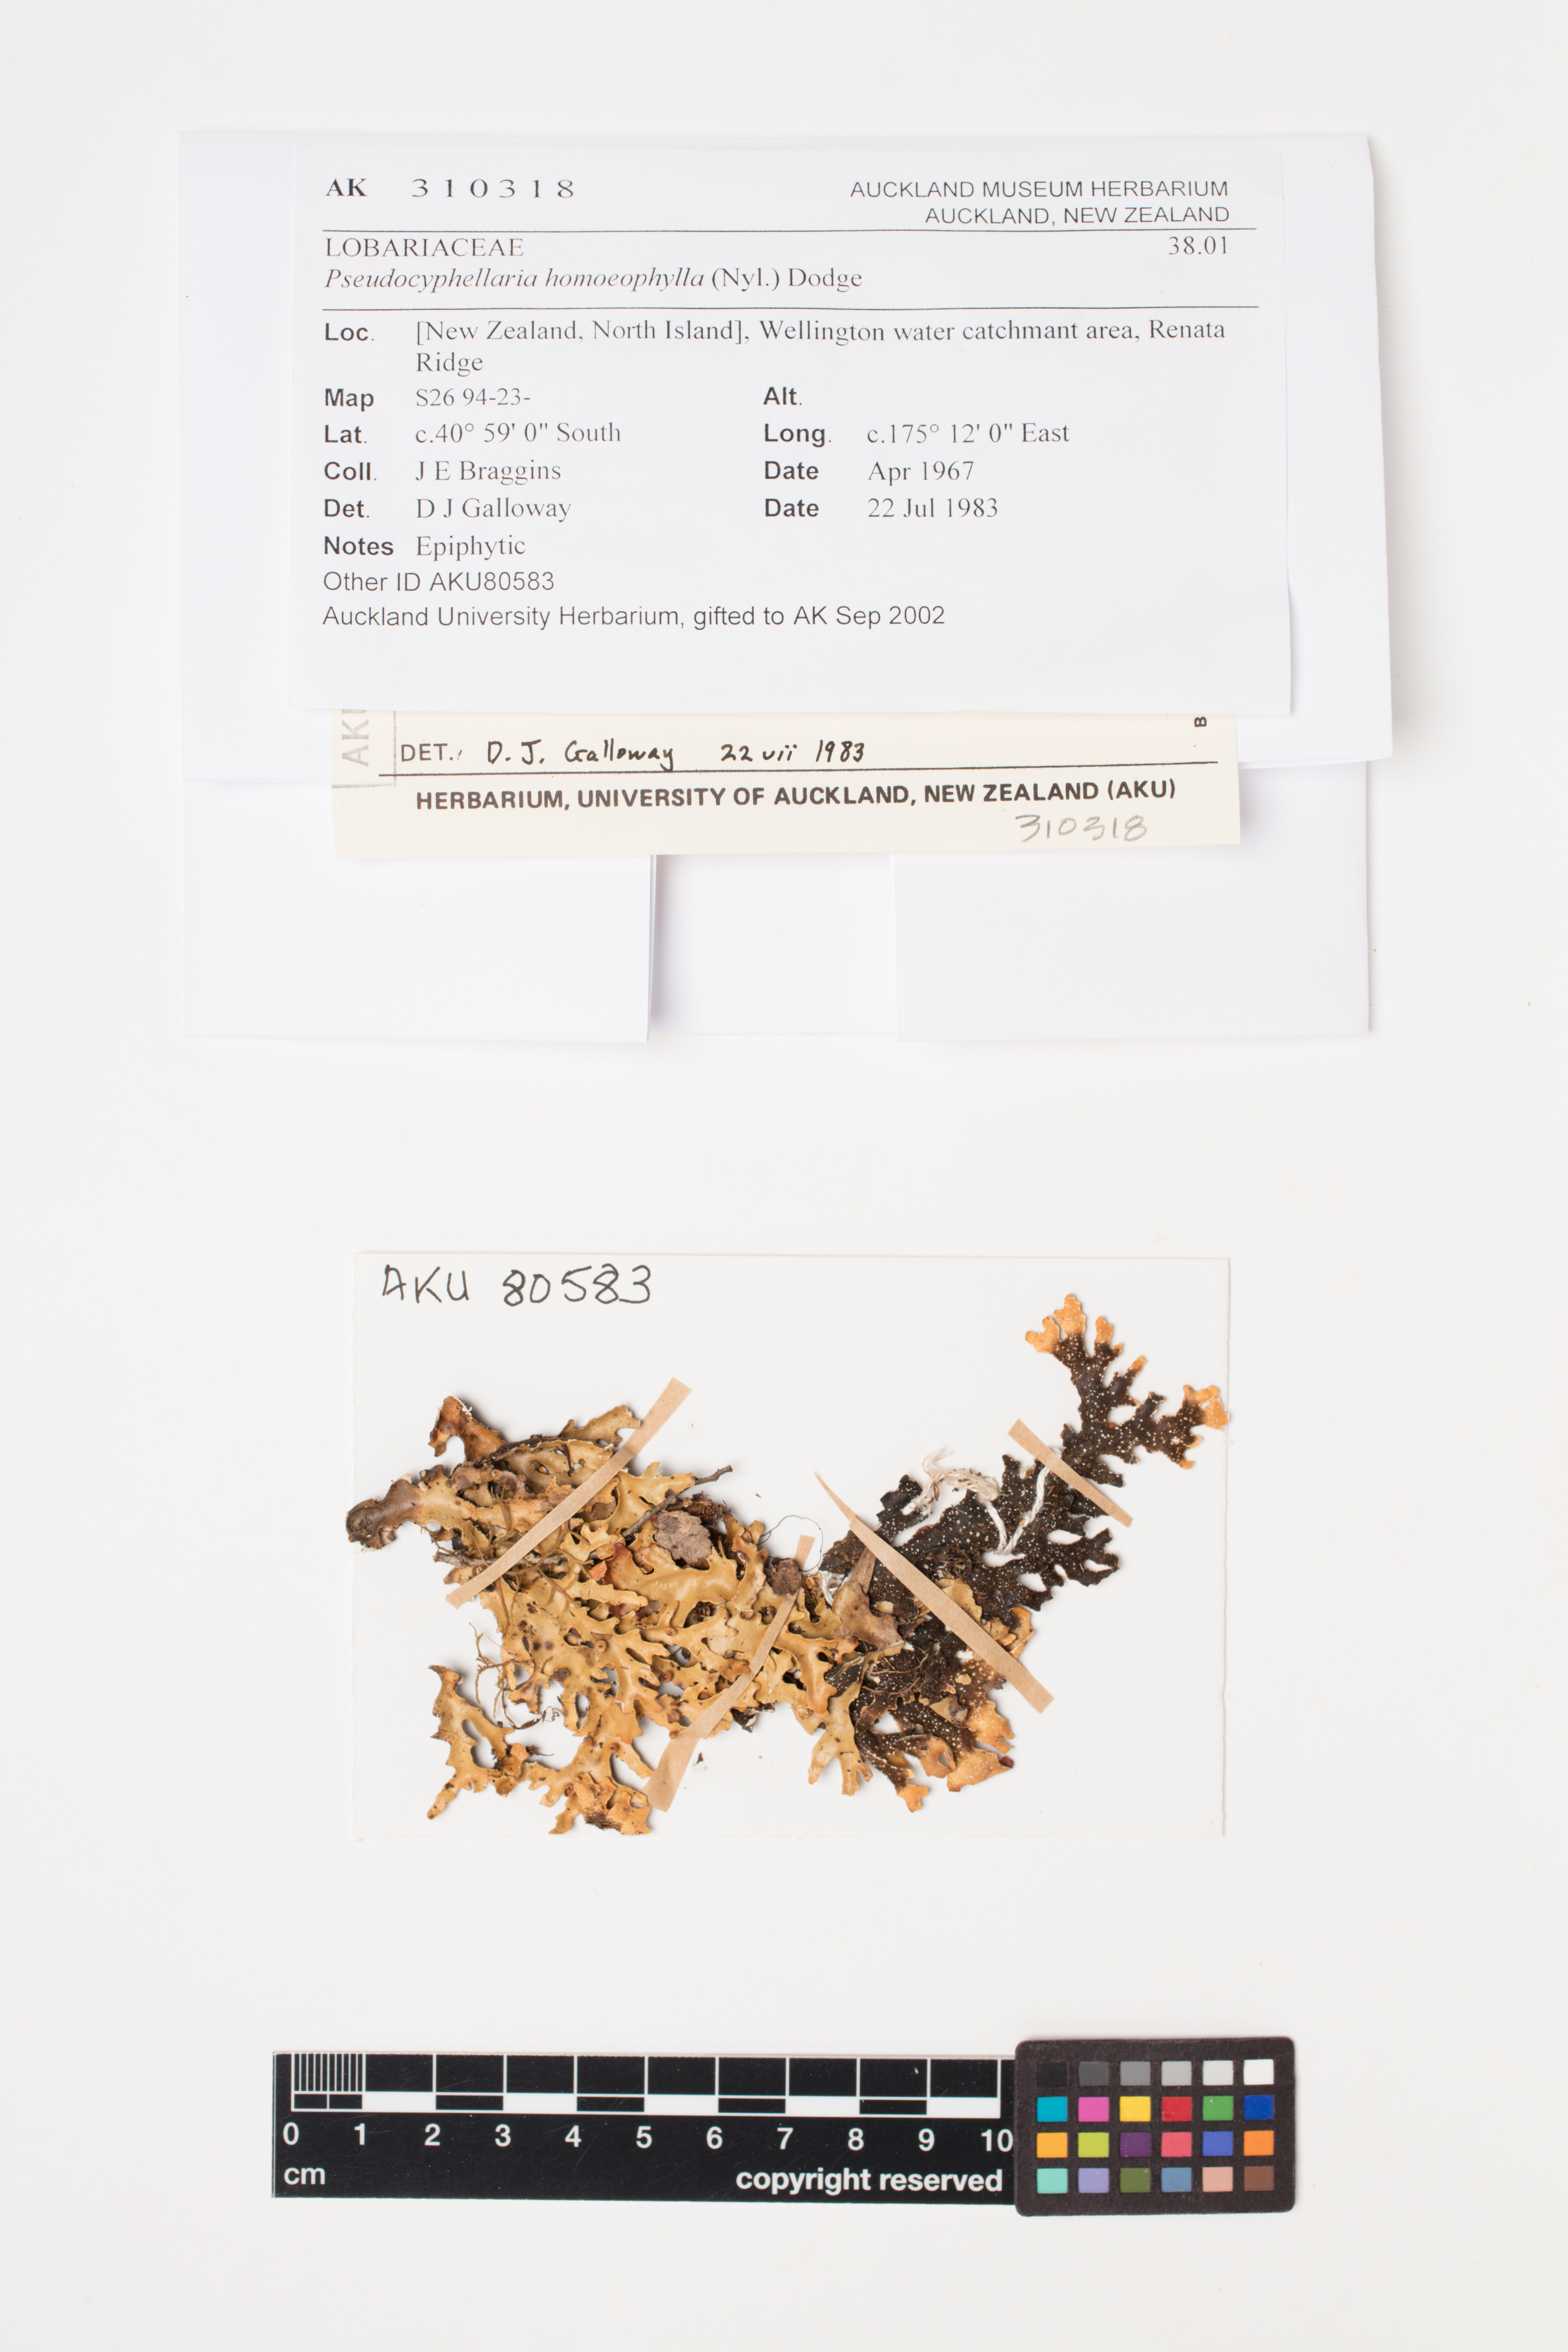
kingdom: Fungi
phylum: Ascomycota
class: Lecanoromycetes
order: Peltigerales
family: Lobariaceae
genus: Pseudocyphellaria
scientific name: Pseudocyphellaria homeophylla
